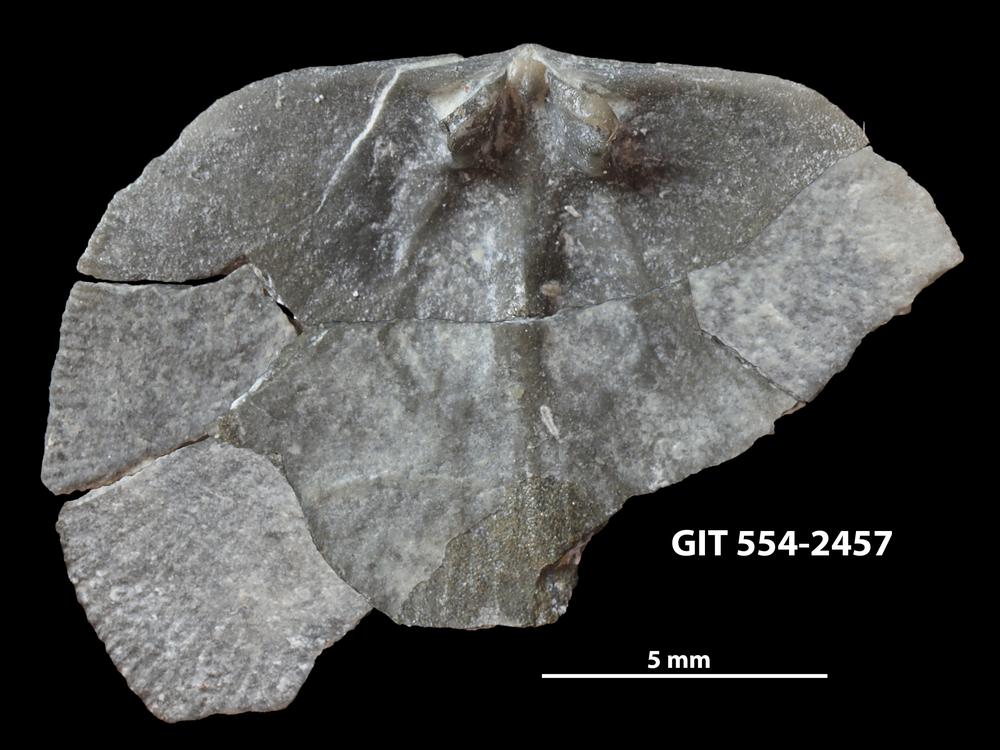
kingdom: Animalia
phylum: Brachiopoda
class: Rhynchonellata
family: Dalmanellidae
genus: Dalmanella
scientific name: Dalmanella rosensteinae
